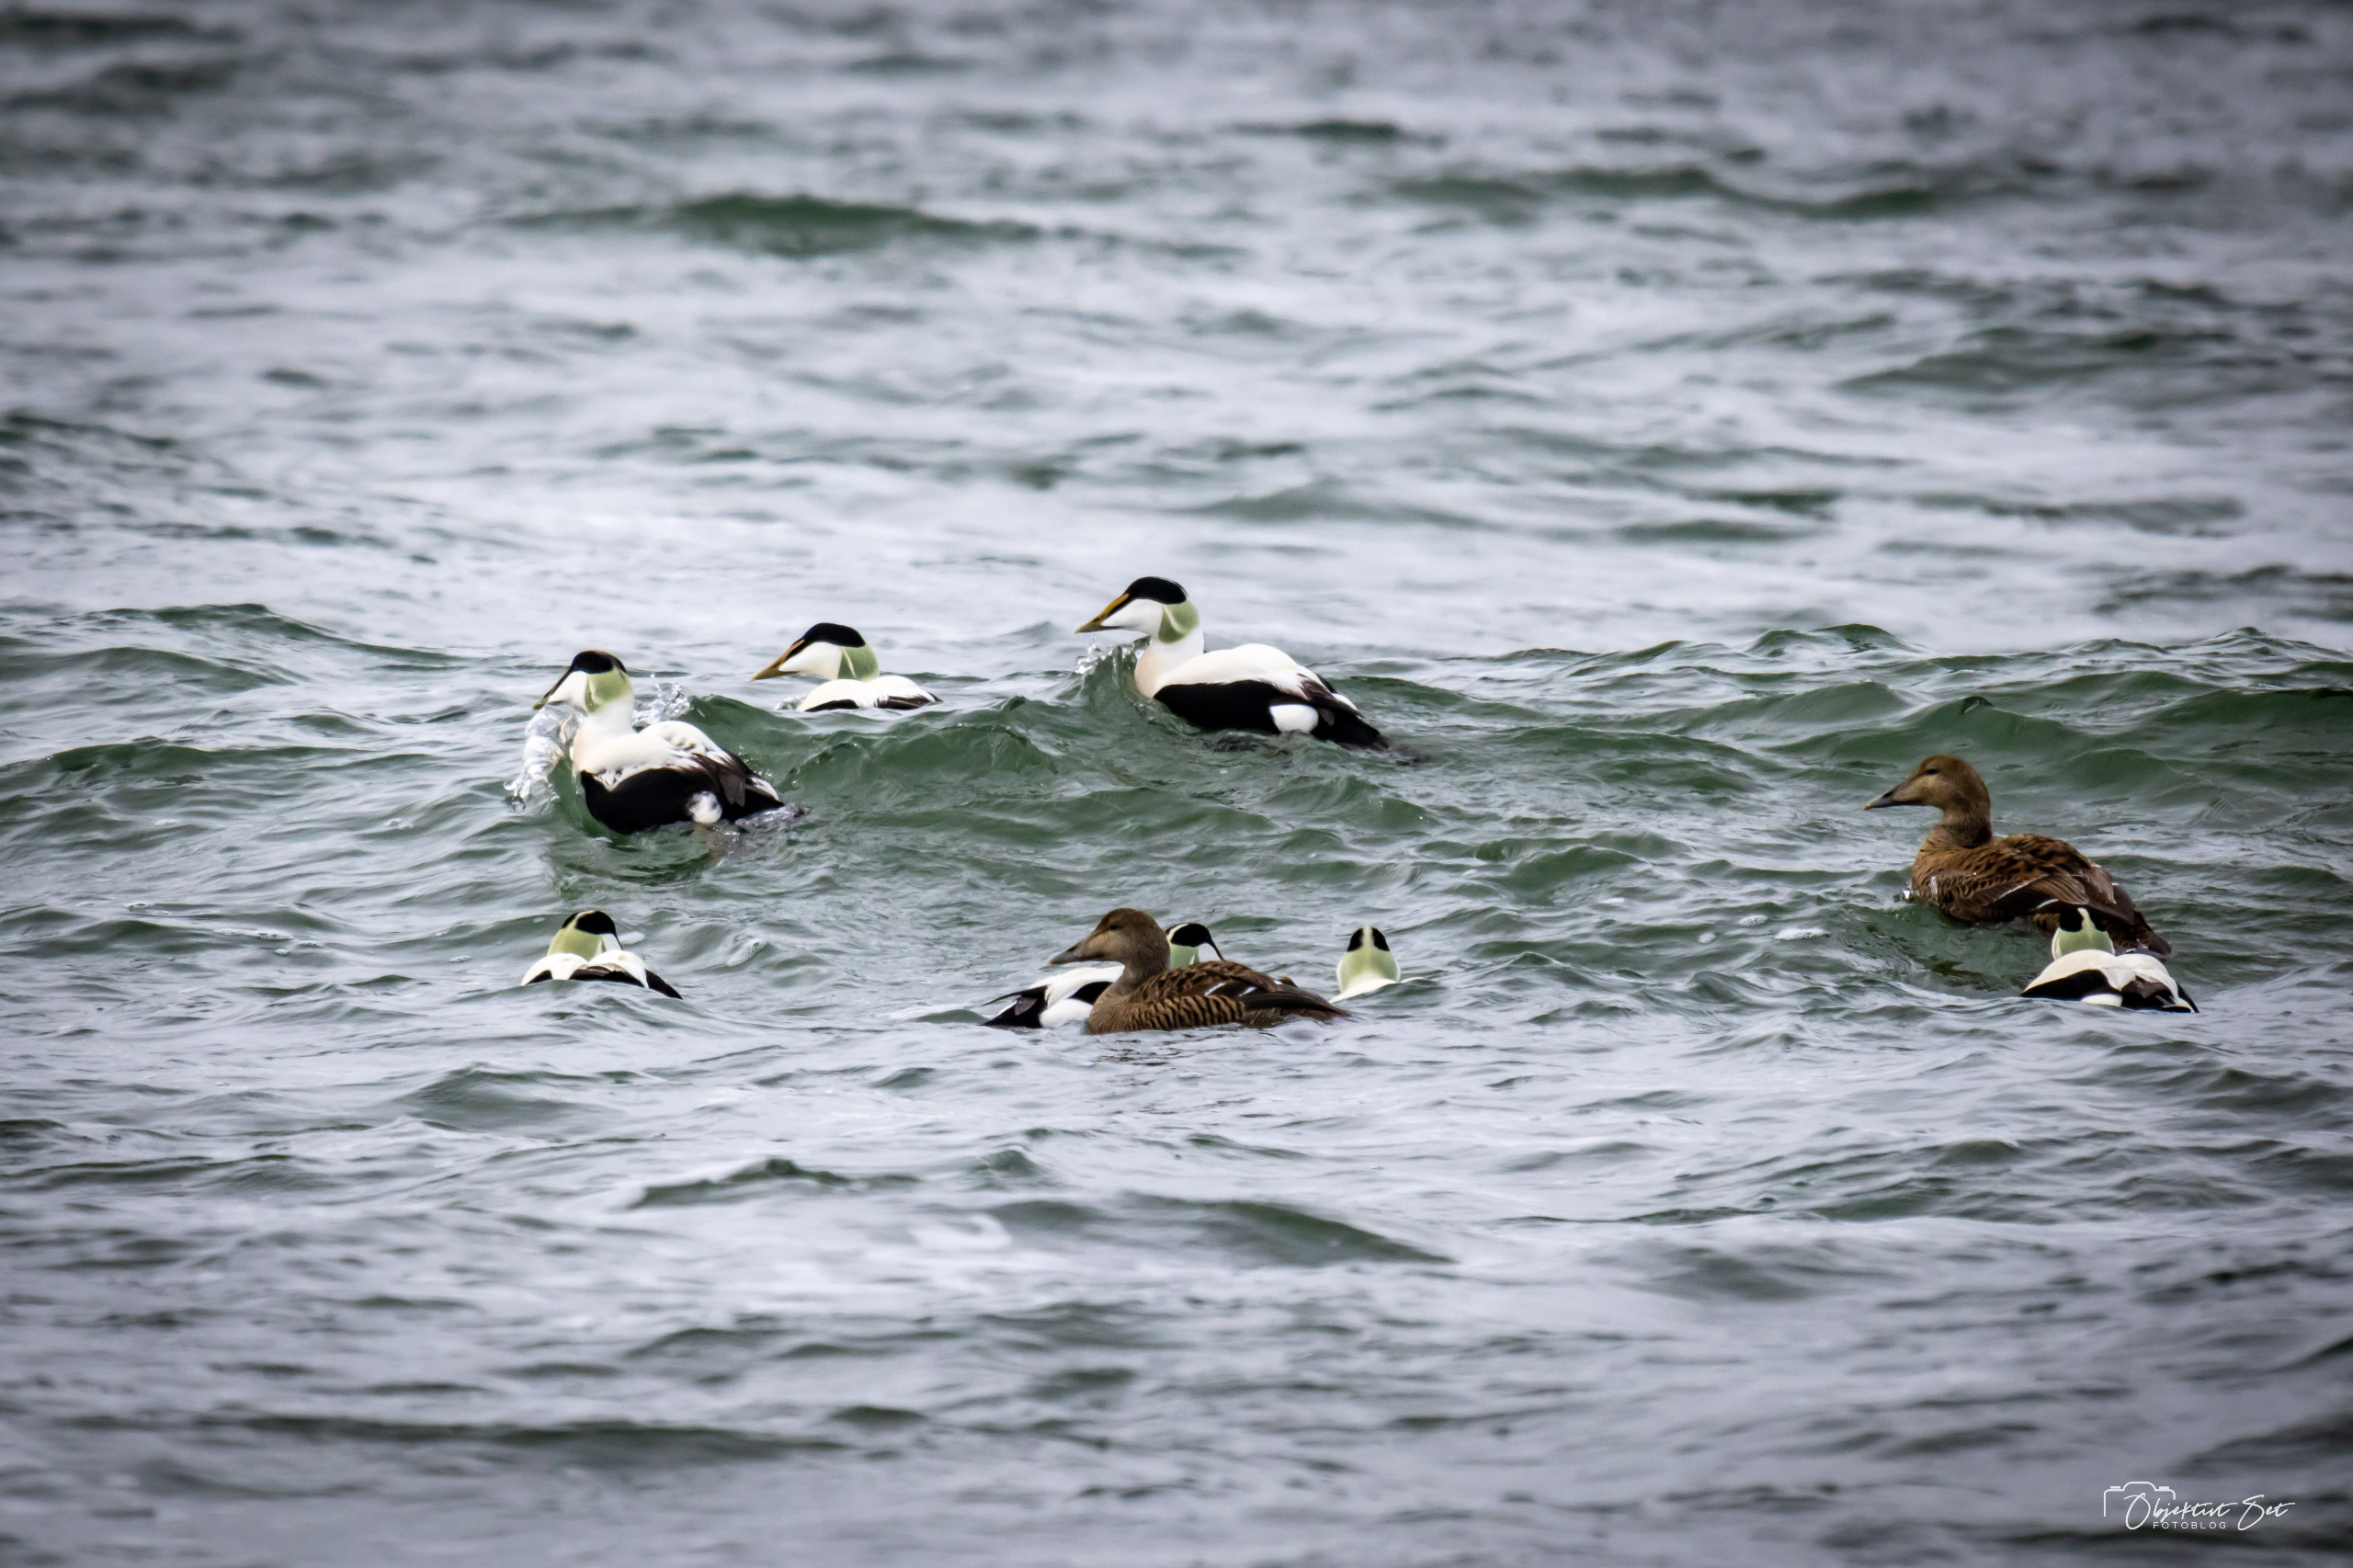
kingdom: Animalia
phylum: Chordata
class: Aves
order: Anseriformes
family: Anatidae
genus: Somateria
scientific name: Somateria mollissima
